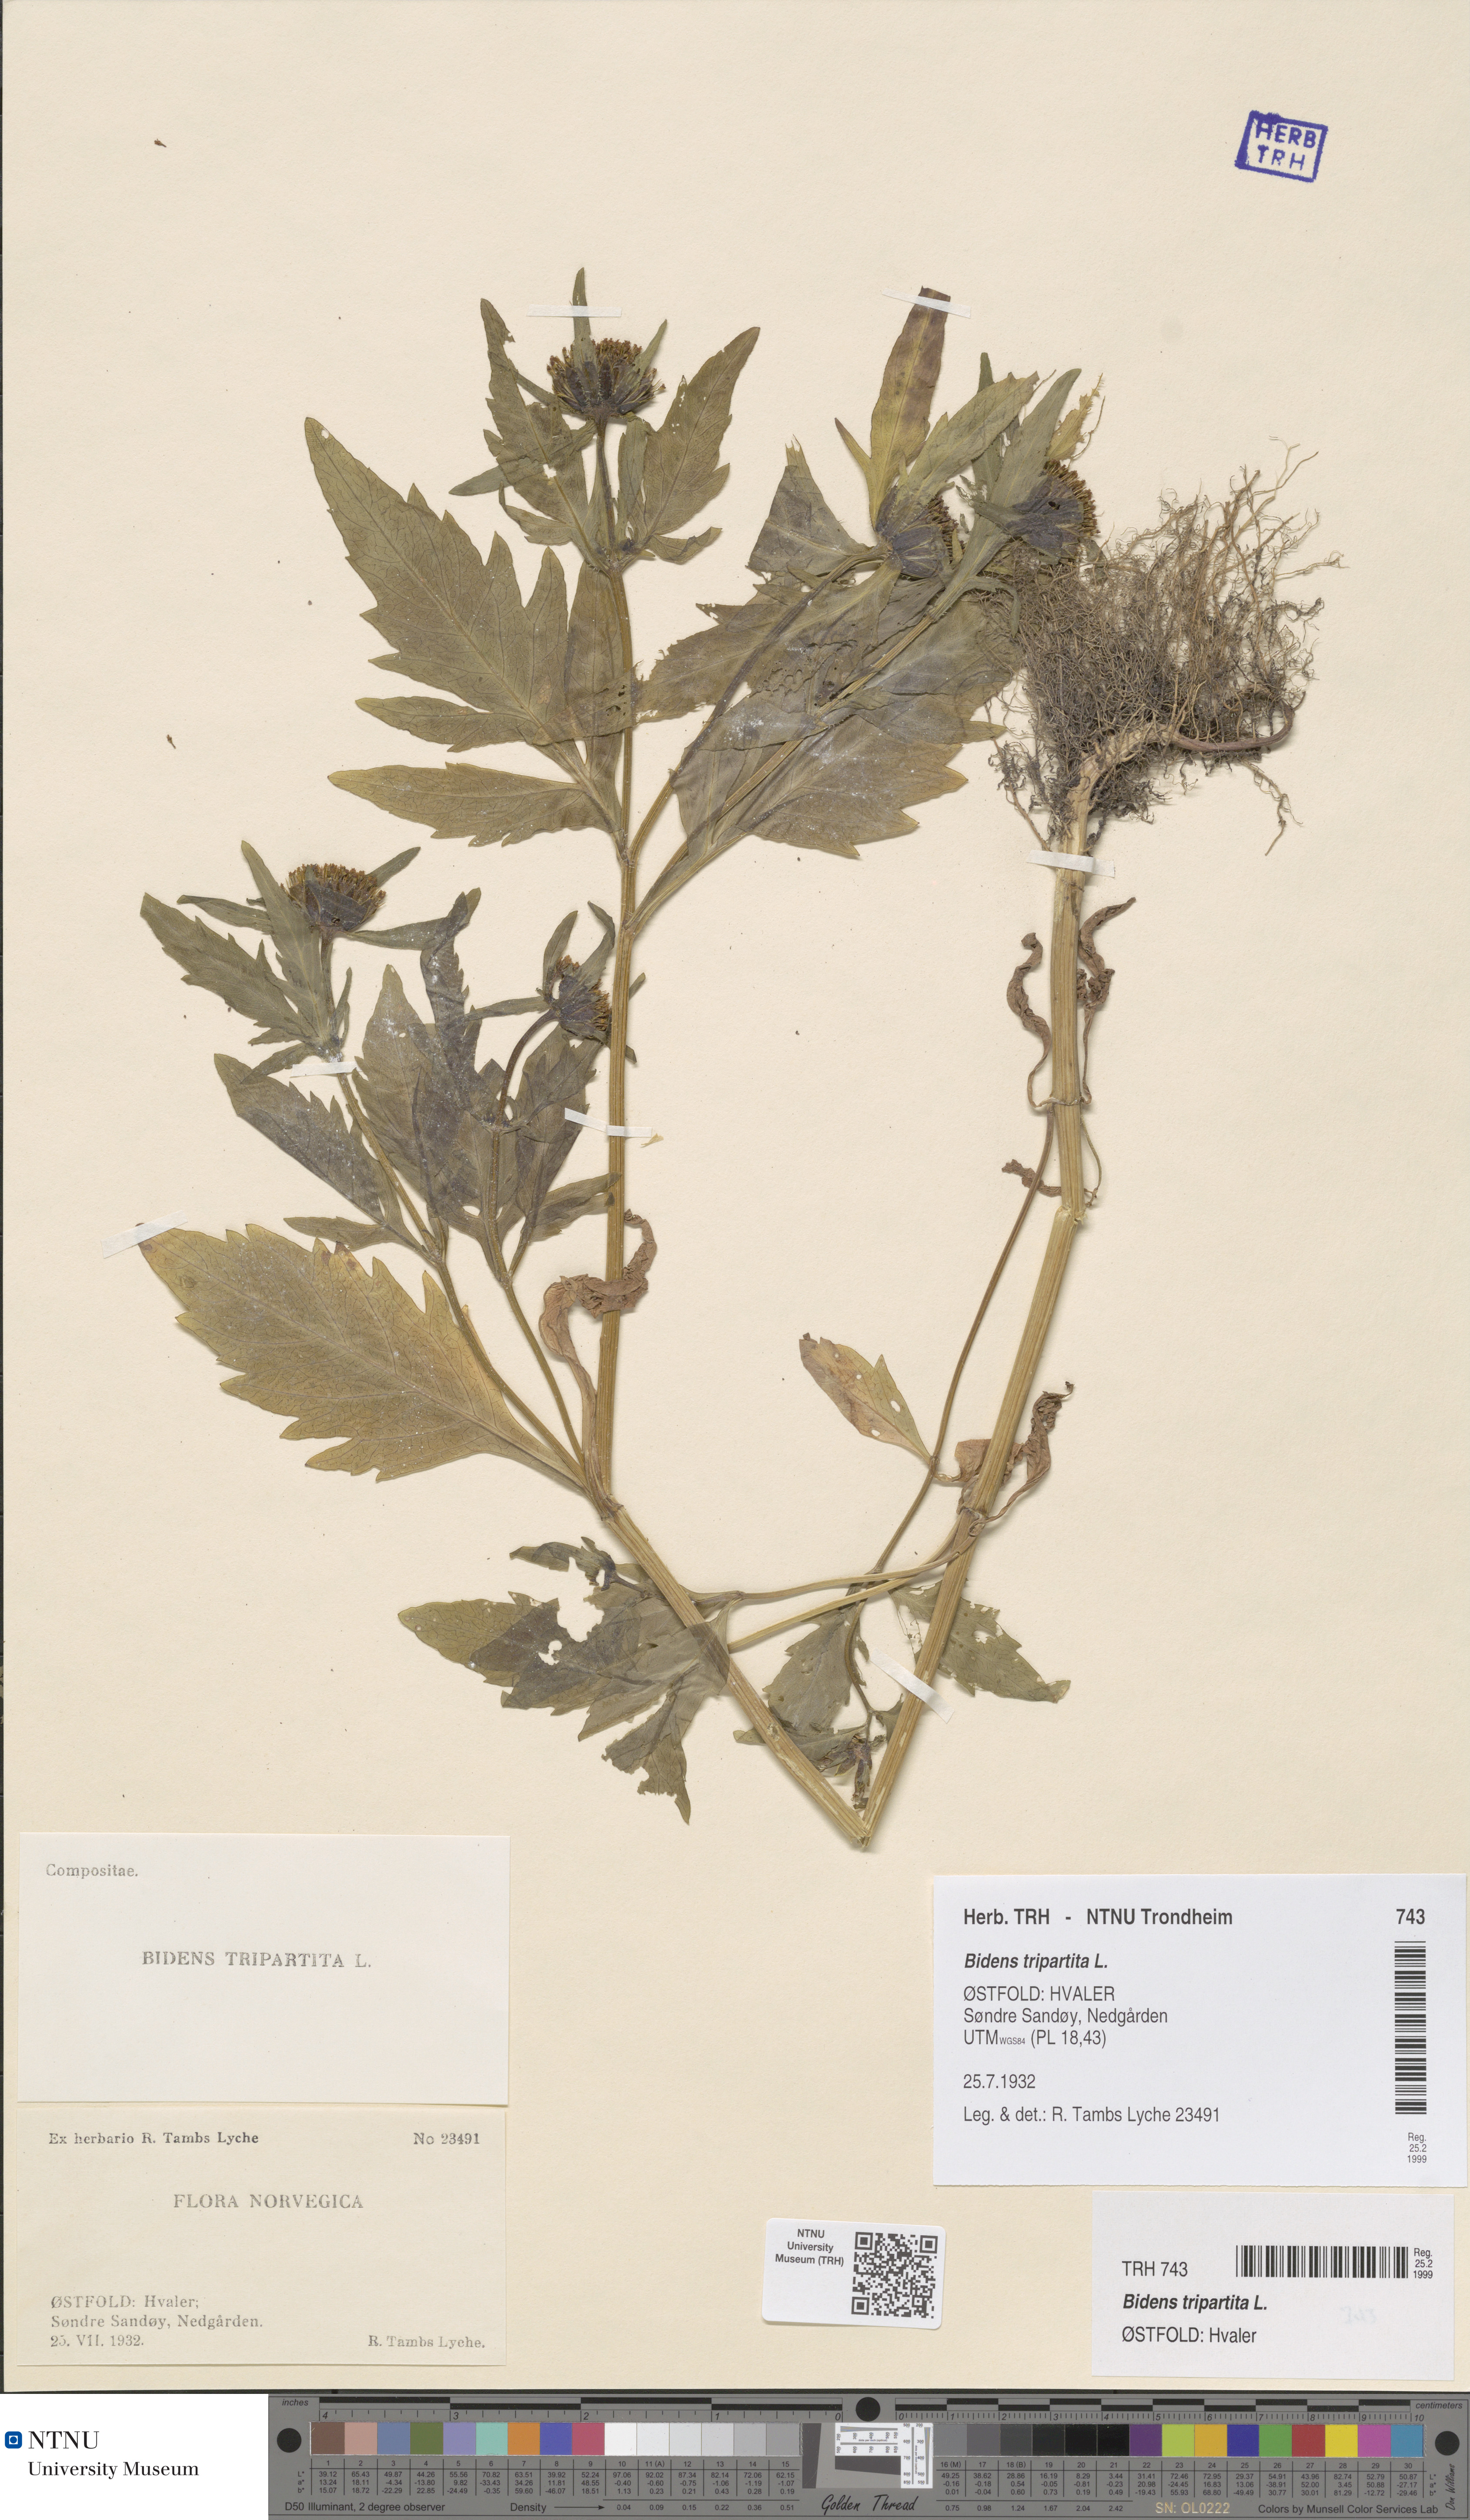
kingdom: Plantae
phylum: Tracheophyta
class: Magnoliopsida
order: Asterales
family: Asteraceae
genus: Bidens
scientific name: Bidens tripartita
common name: Trifid bur-marigold
